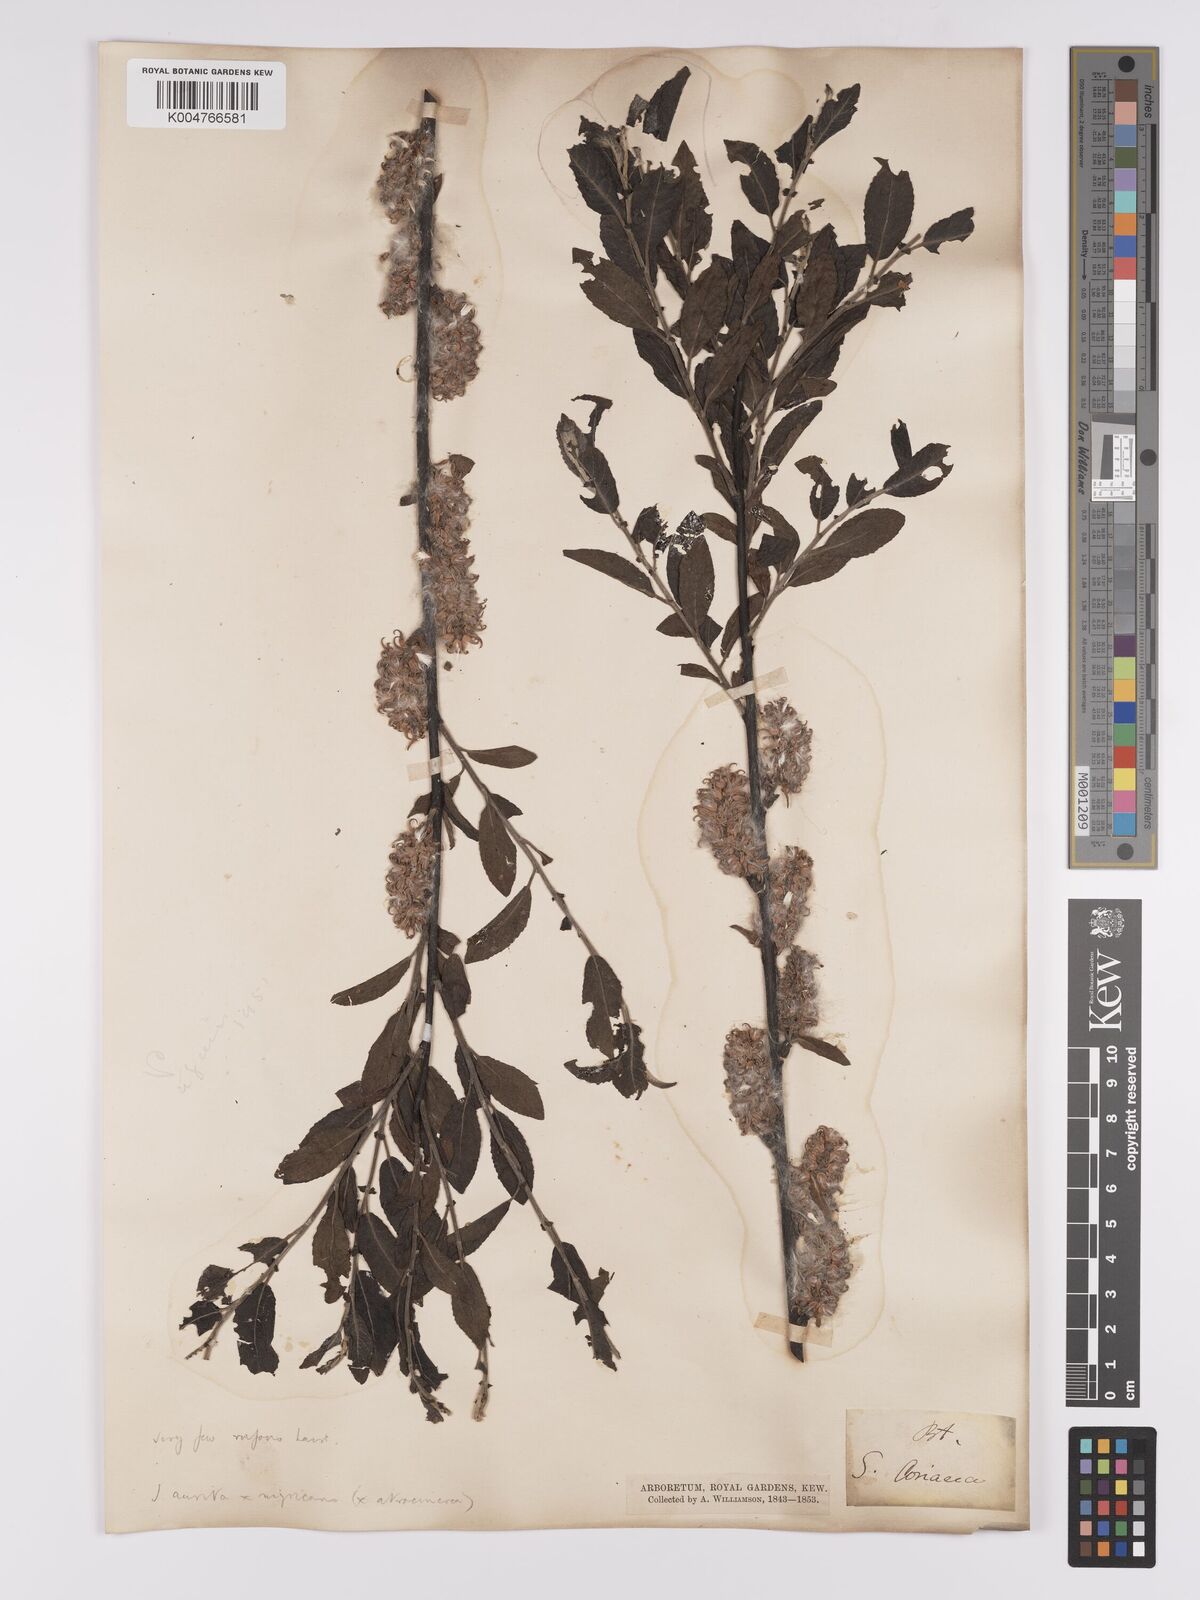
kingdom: Plantae
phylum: Tracheophyta
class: Magnoliopsida
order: Malpighiales
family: Salicaceae
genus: Salix
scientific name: Salix
